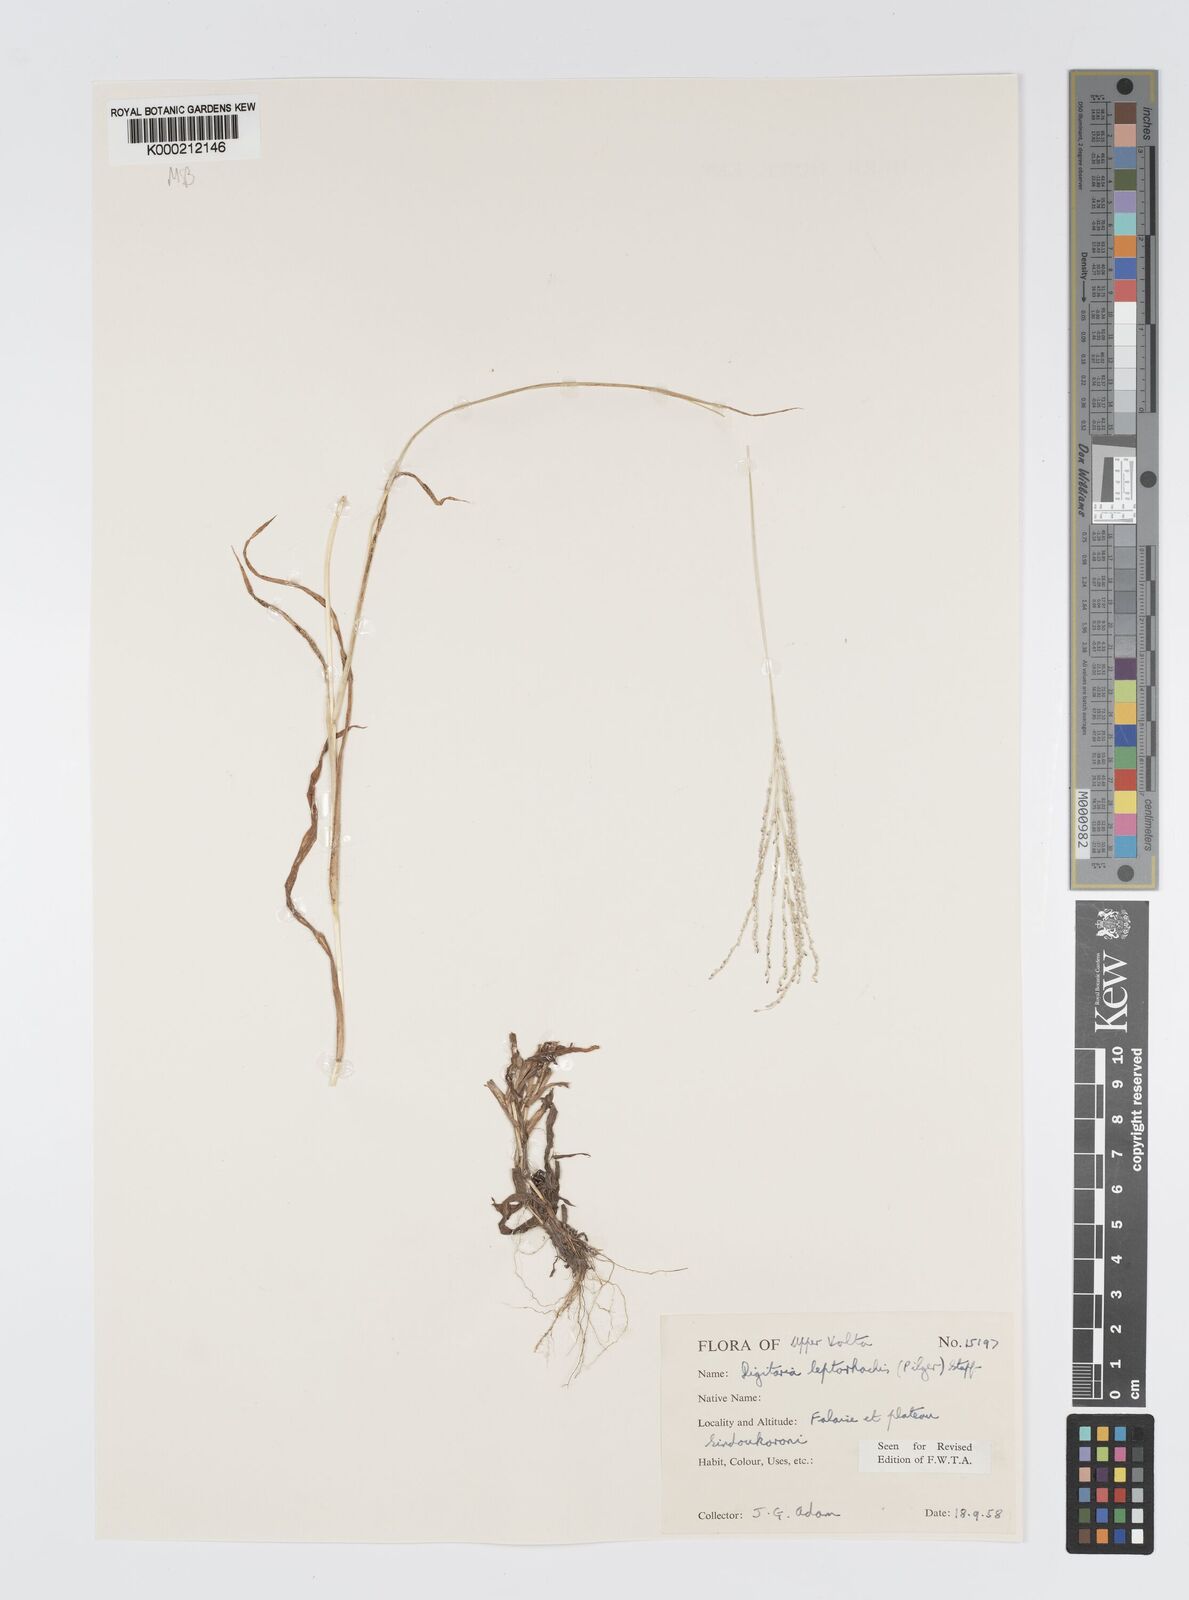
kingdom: Plantae
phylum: Tracheophyta
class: Liliopsida
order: Poales
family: Poaceae
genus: Digitaria
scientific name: Digitaria leptorhachis
